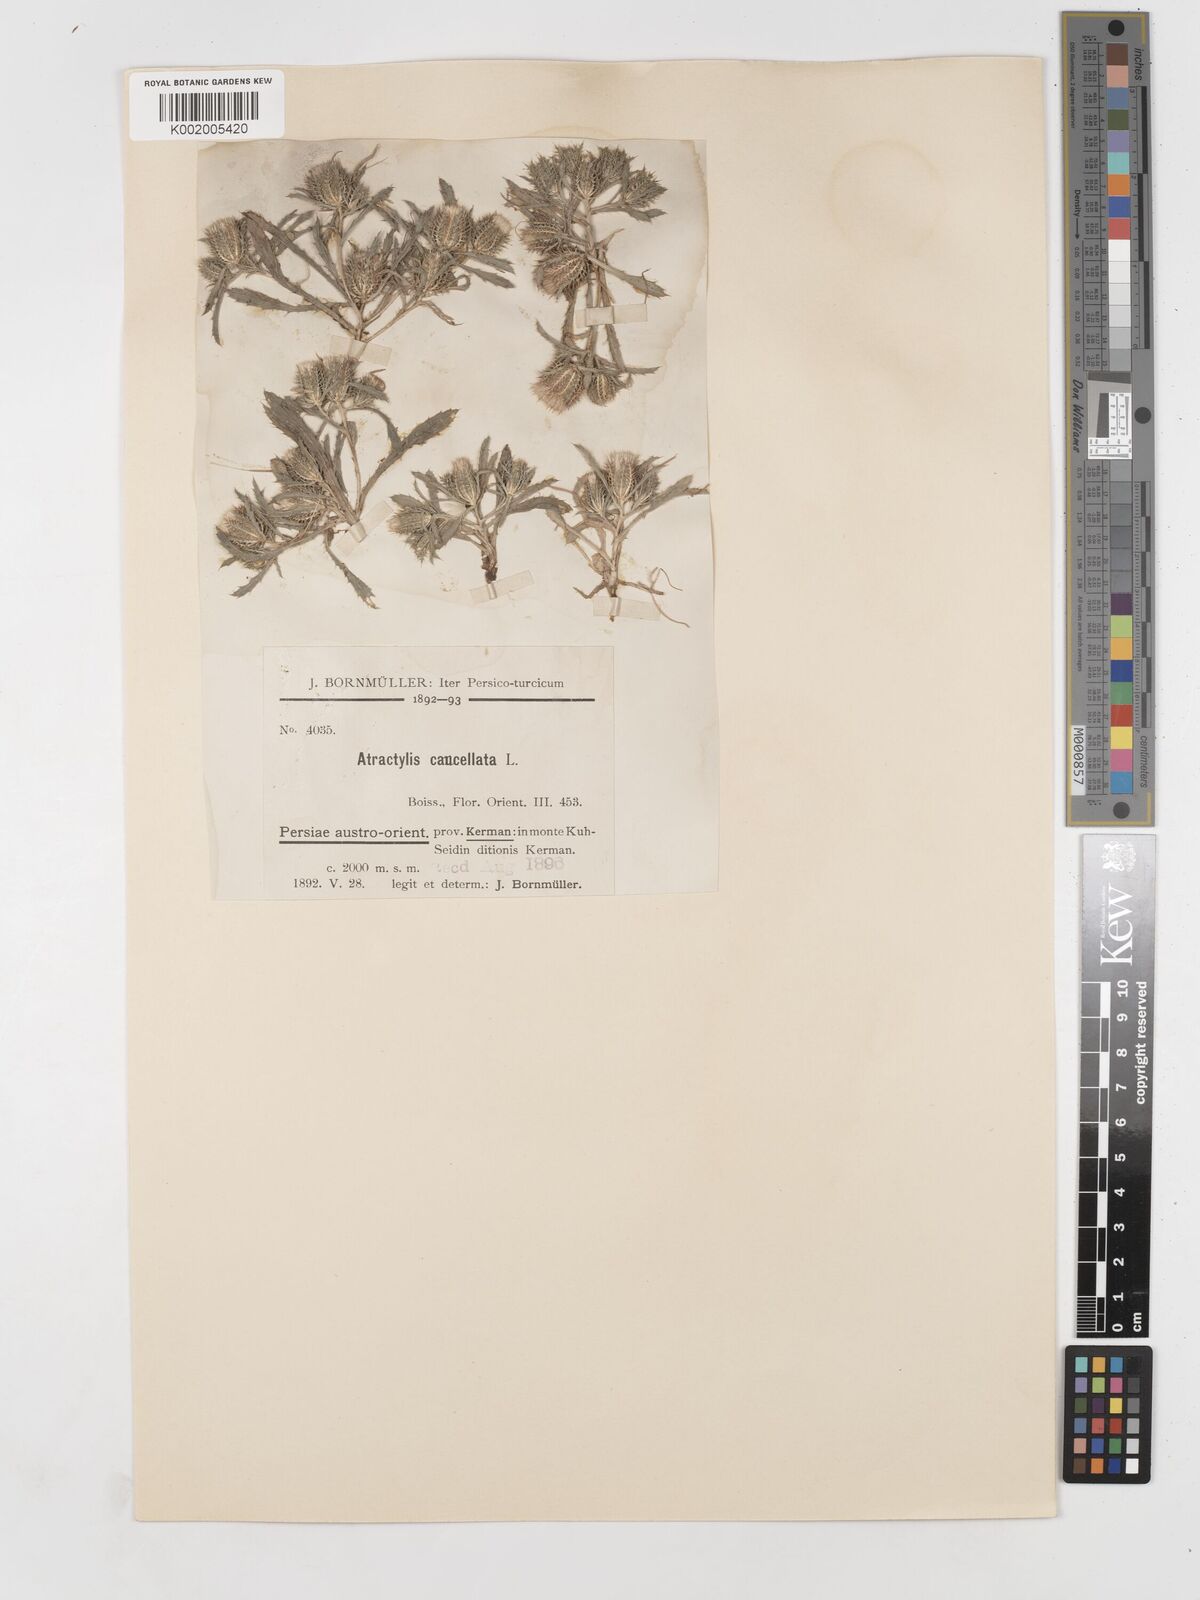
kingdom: Plantae
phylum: Tracheophyta
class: Magnoliopsida
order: Asterales
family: Asteraceae
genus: Atractylis
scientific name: Atractylis cancellata
